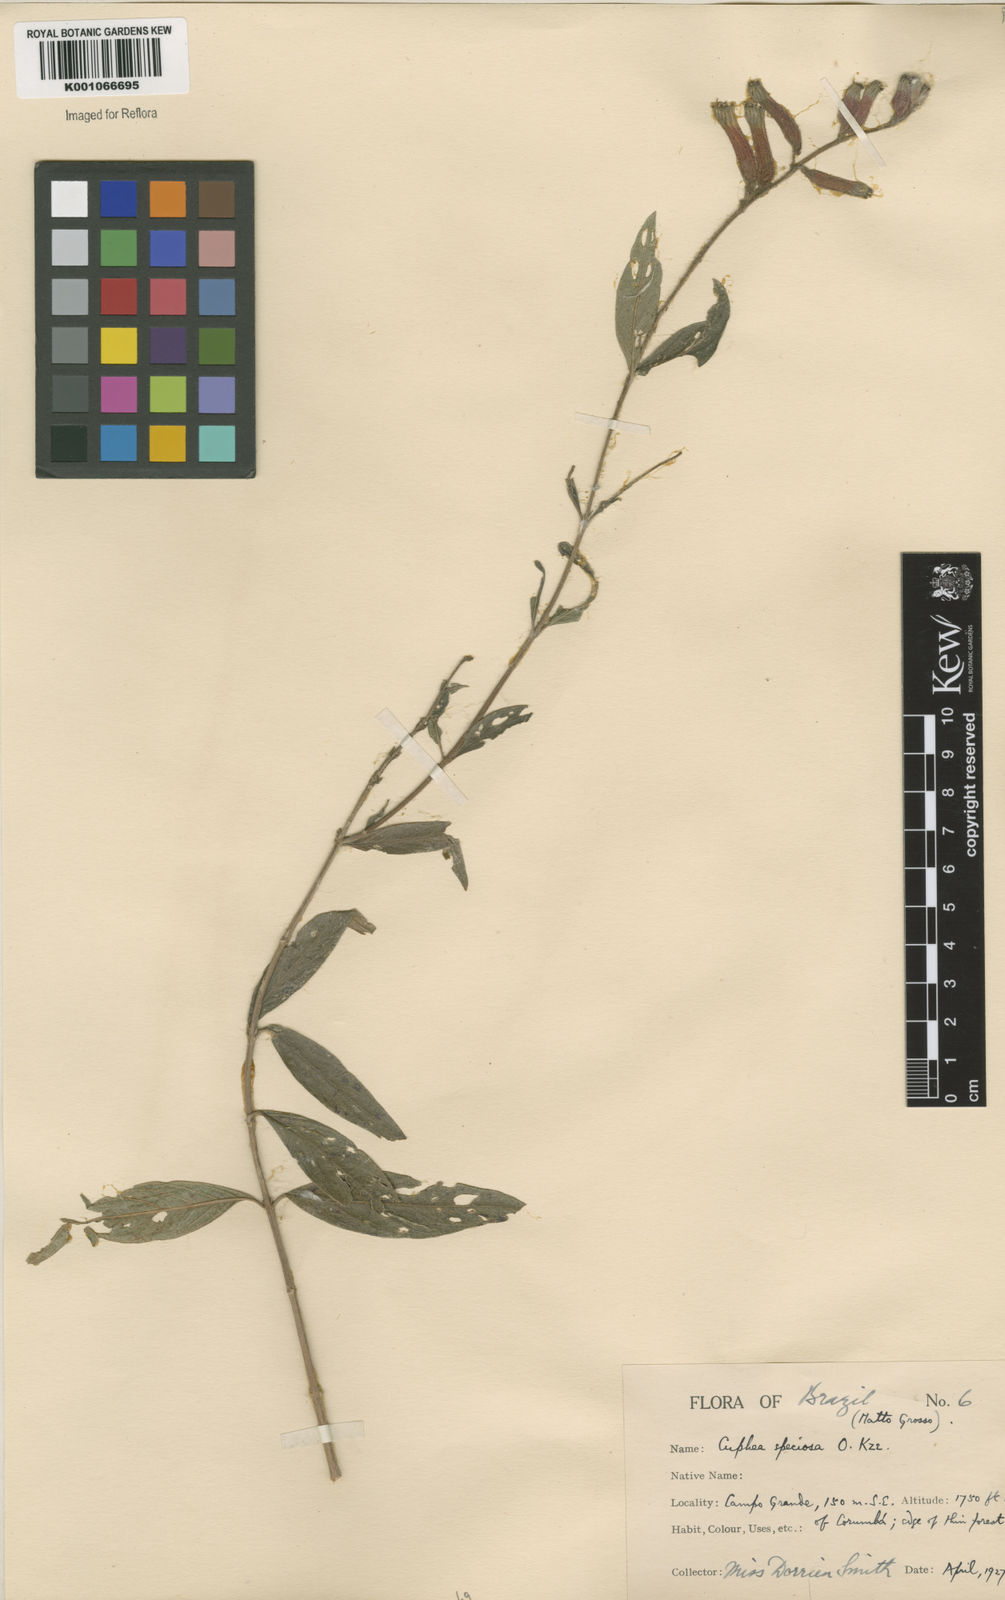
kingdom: Plantae
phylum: Tracheophyta
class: Magnoliopsida
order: Myrtales
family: Lythraceae
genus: Cuphea
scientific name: Cuphea melvilla
